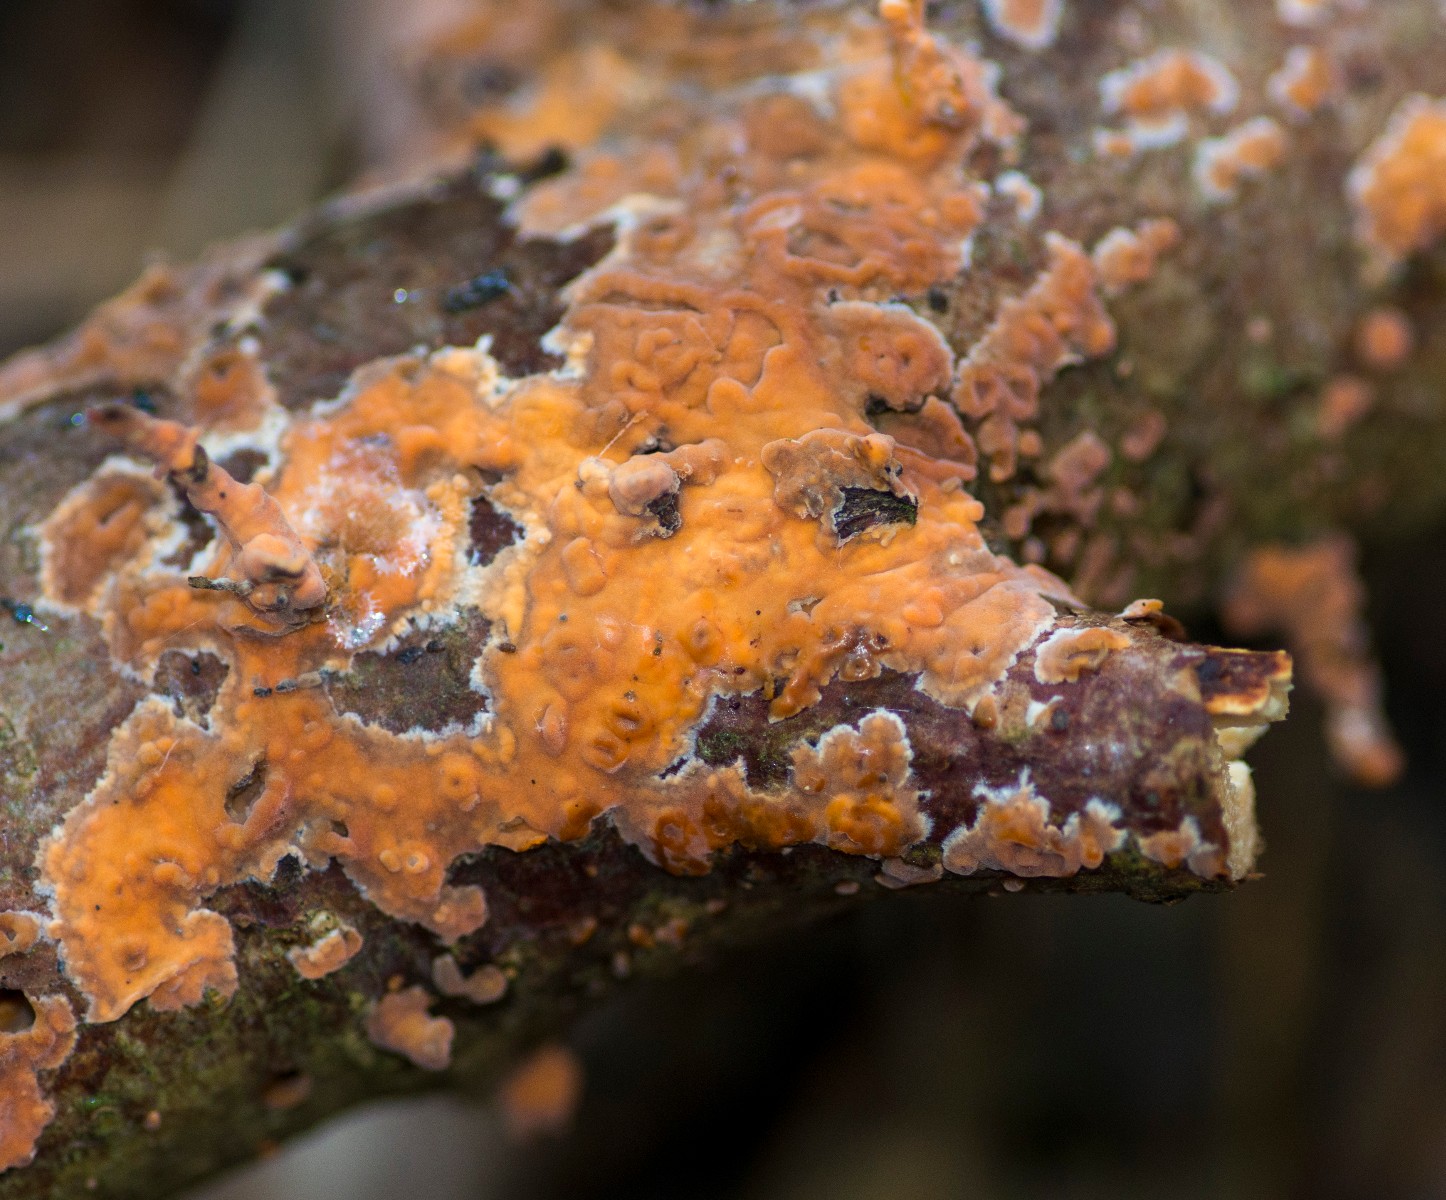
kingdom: Fungi
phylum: Basidiomycota
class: Agaricomycetes
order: Russulales
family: Peniophoraceae
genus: Peniophora
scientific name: Peniophora incarnata
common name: laksefarvet voksskind
